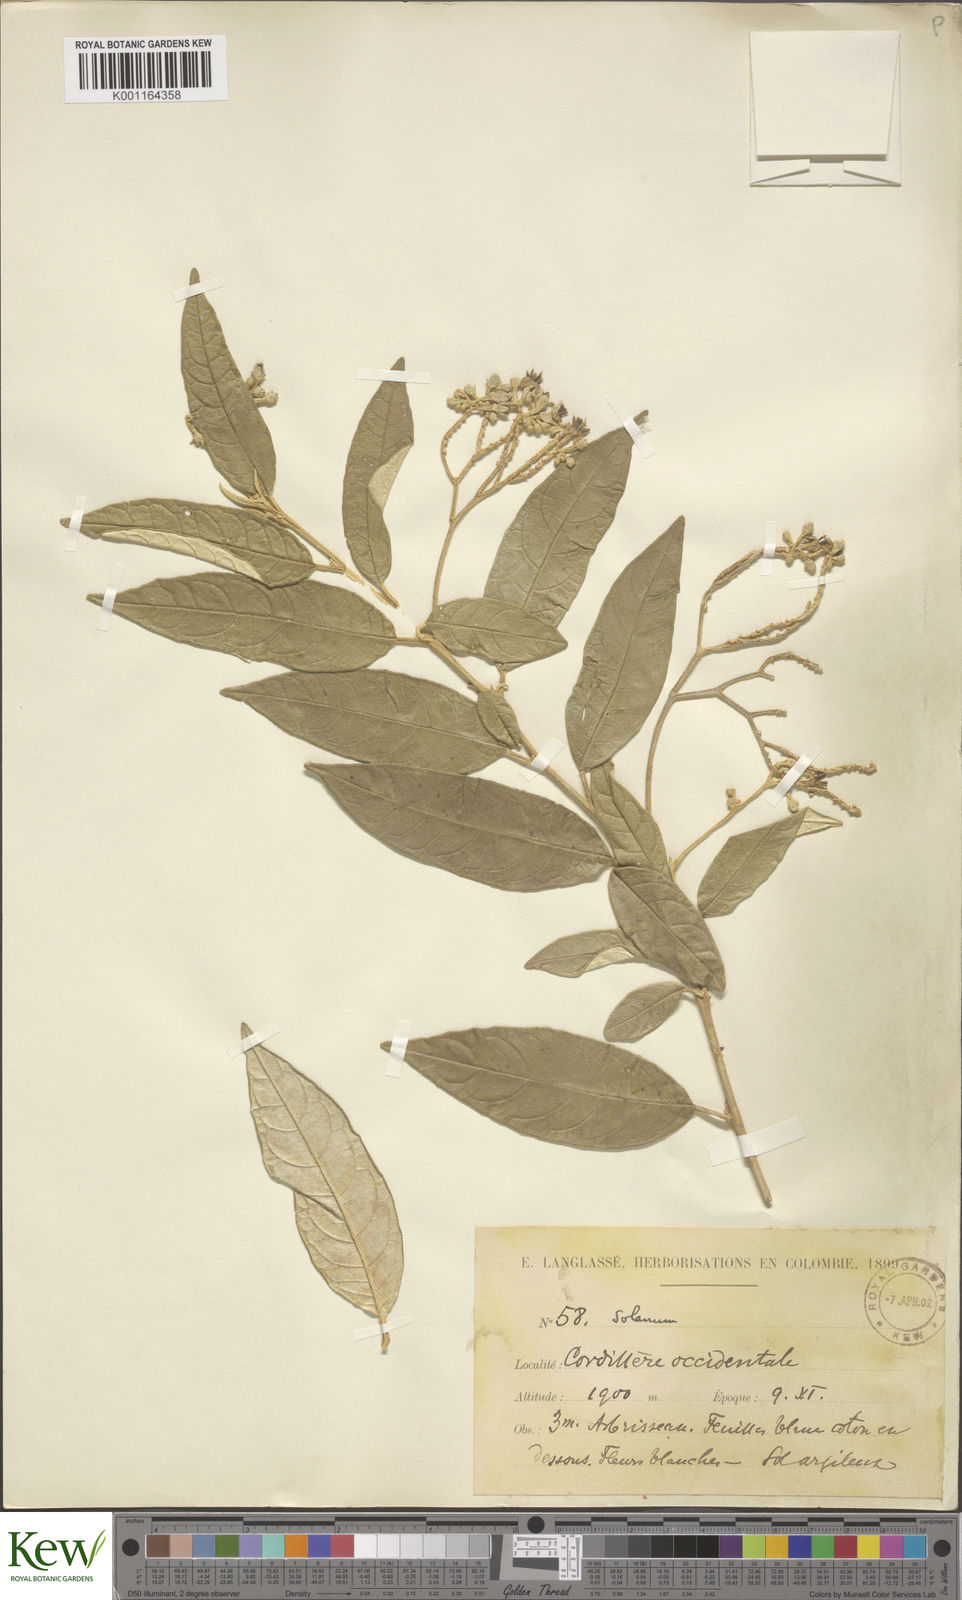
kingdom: Plantae
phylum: Tracheophyta
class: Magnoliopsida
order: Solanales
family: Solanaceae
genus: Solanum
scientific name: Solanum lepidotum
